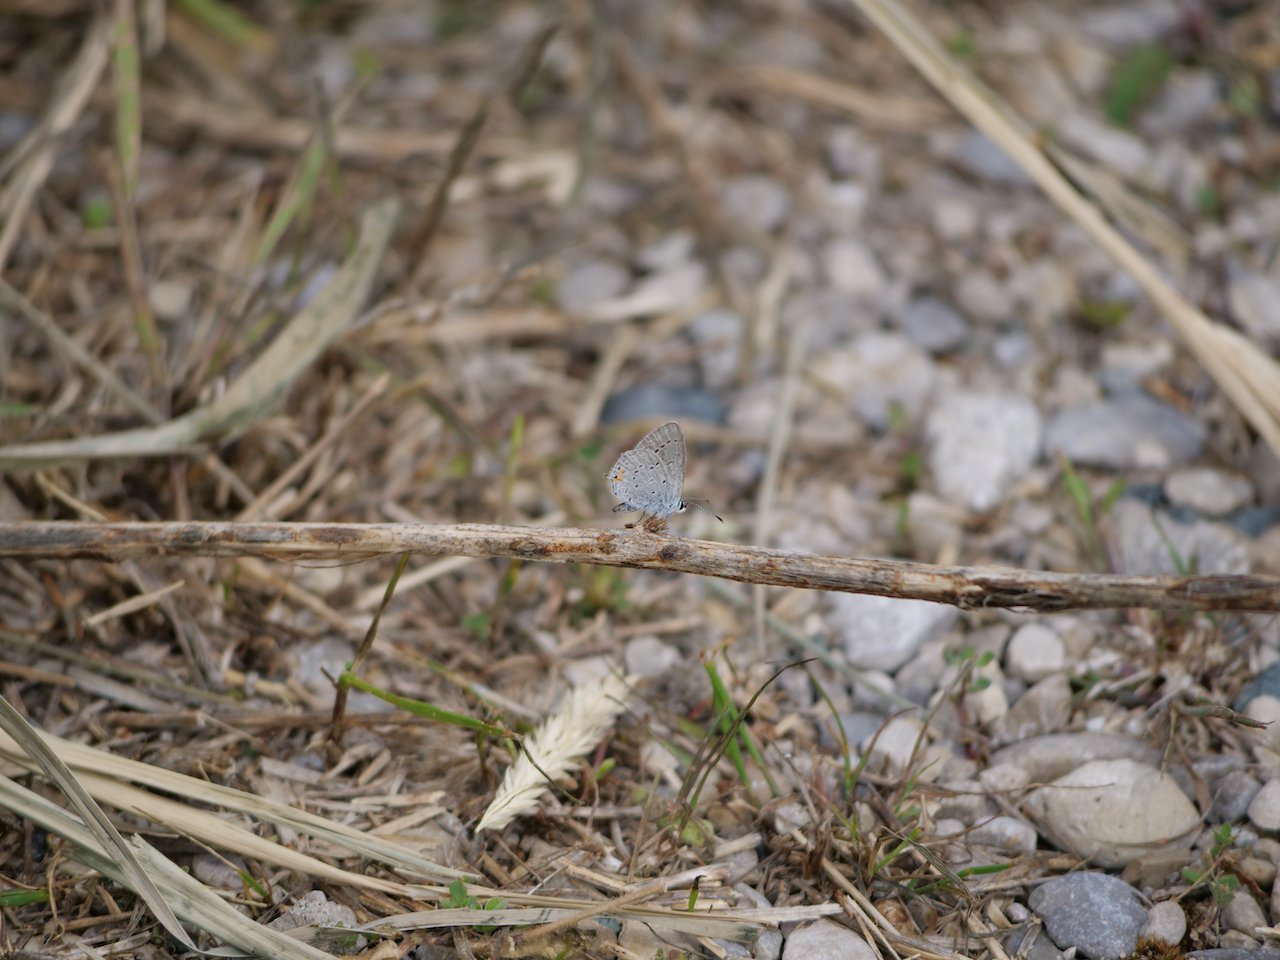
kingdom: Animalia
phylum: Arthropoda
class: Insecta
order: Lepidoptera
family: Lycaenidae
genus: Elkalyce
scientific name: Elkalyce comyntas
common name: Eastern Tailed-Blue
